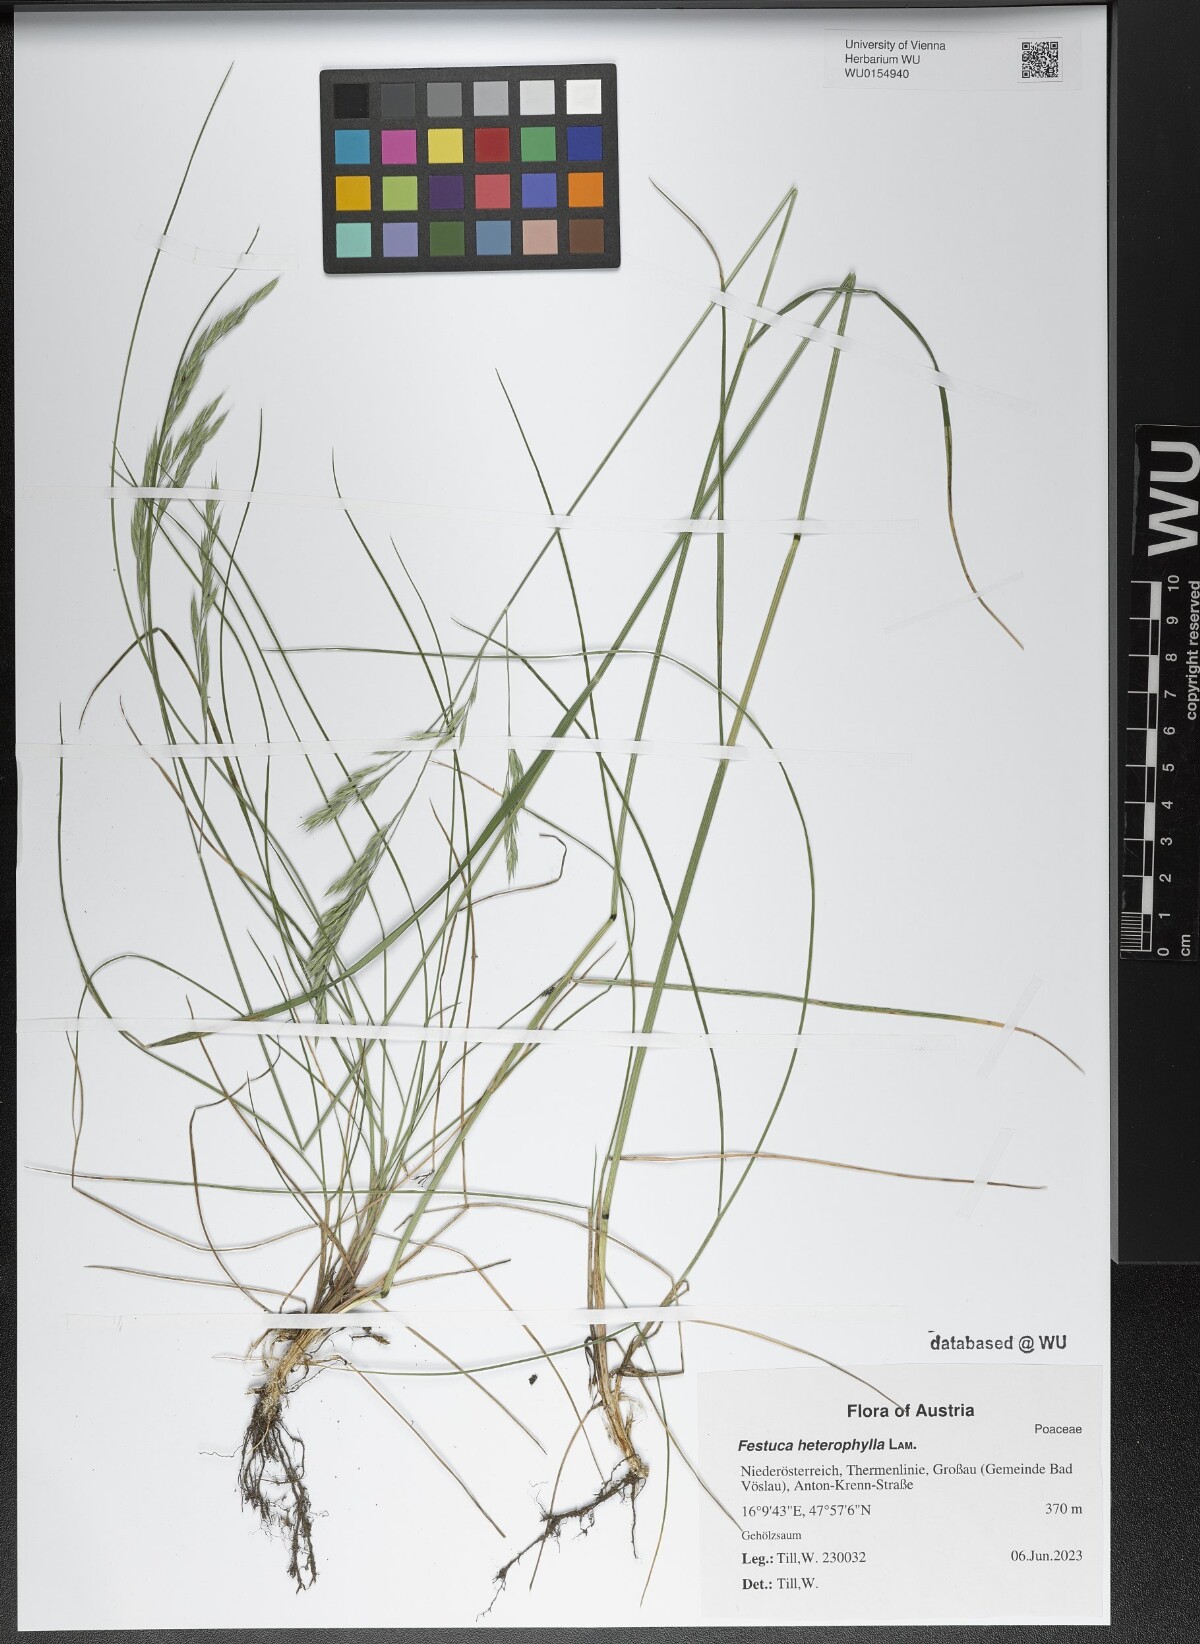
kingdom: Plantae
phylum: Tracheophyta
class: Liliopsida
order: Poales
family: Poaceae
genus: Festuca
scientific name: Festuca heterophylla
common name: Various-leaved fescue
